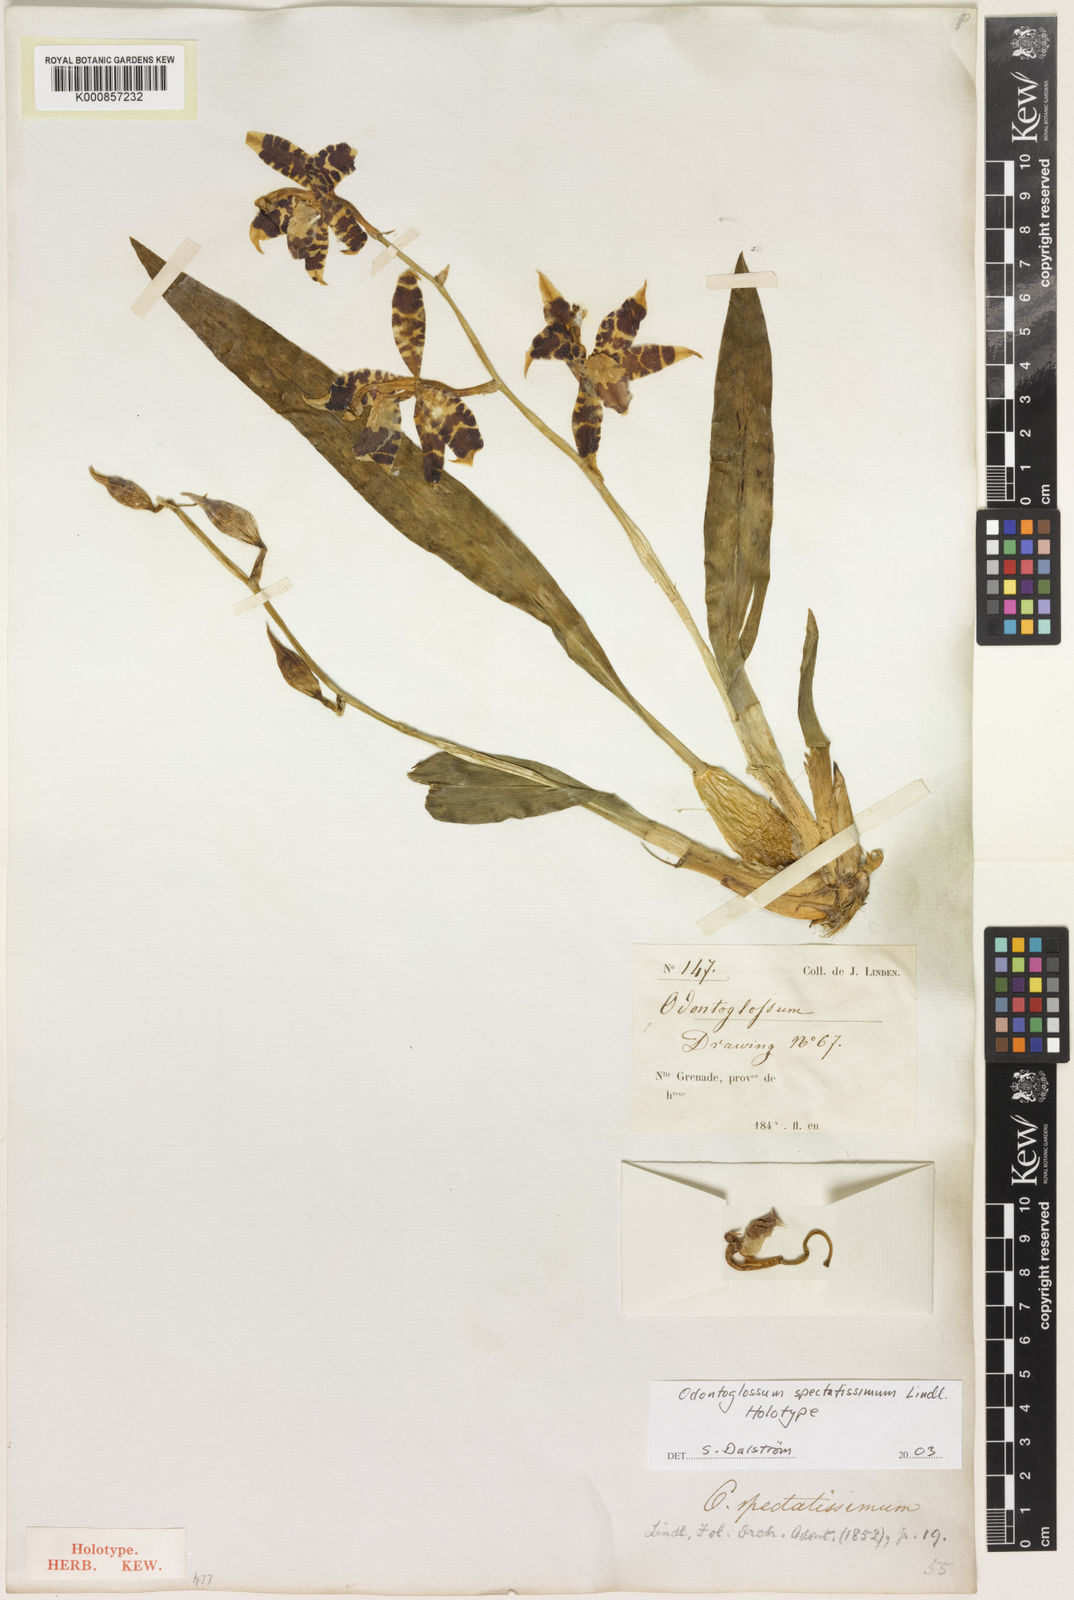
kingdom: Plantae
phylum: Tracheophyta
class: Liliopsida
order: Asparagales
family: Orchidaceae
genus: Oncidium
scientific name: Oncidium spectatissimum
